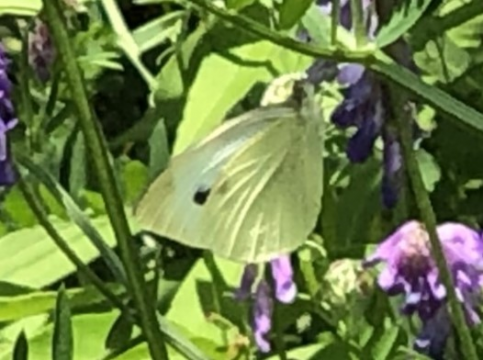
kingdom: Animalia
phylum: Arthropoda
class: Insecta
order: Lepidoptera
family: Pieridae
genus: Pieris
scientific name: Pieris rapae
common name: Cabbage White
